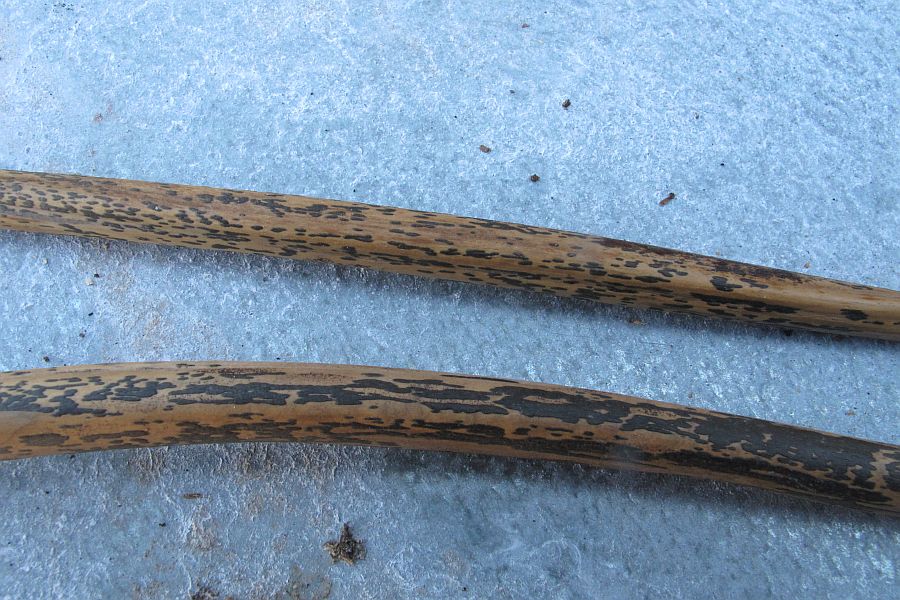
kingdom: Fungi
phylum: Ascomycota
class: Dothideomycetes
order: Pleosporales
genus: Rhopographus
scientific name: Rhopographus filicinus
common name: Bracken map
